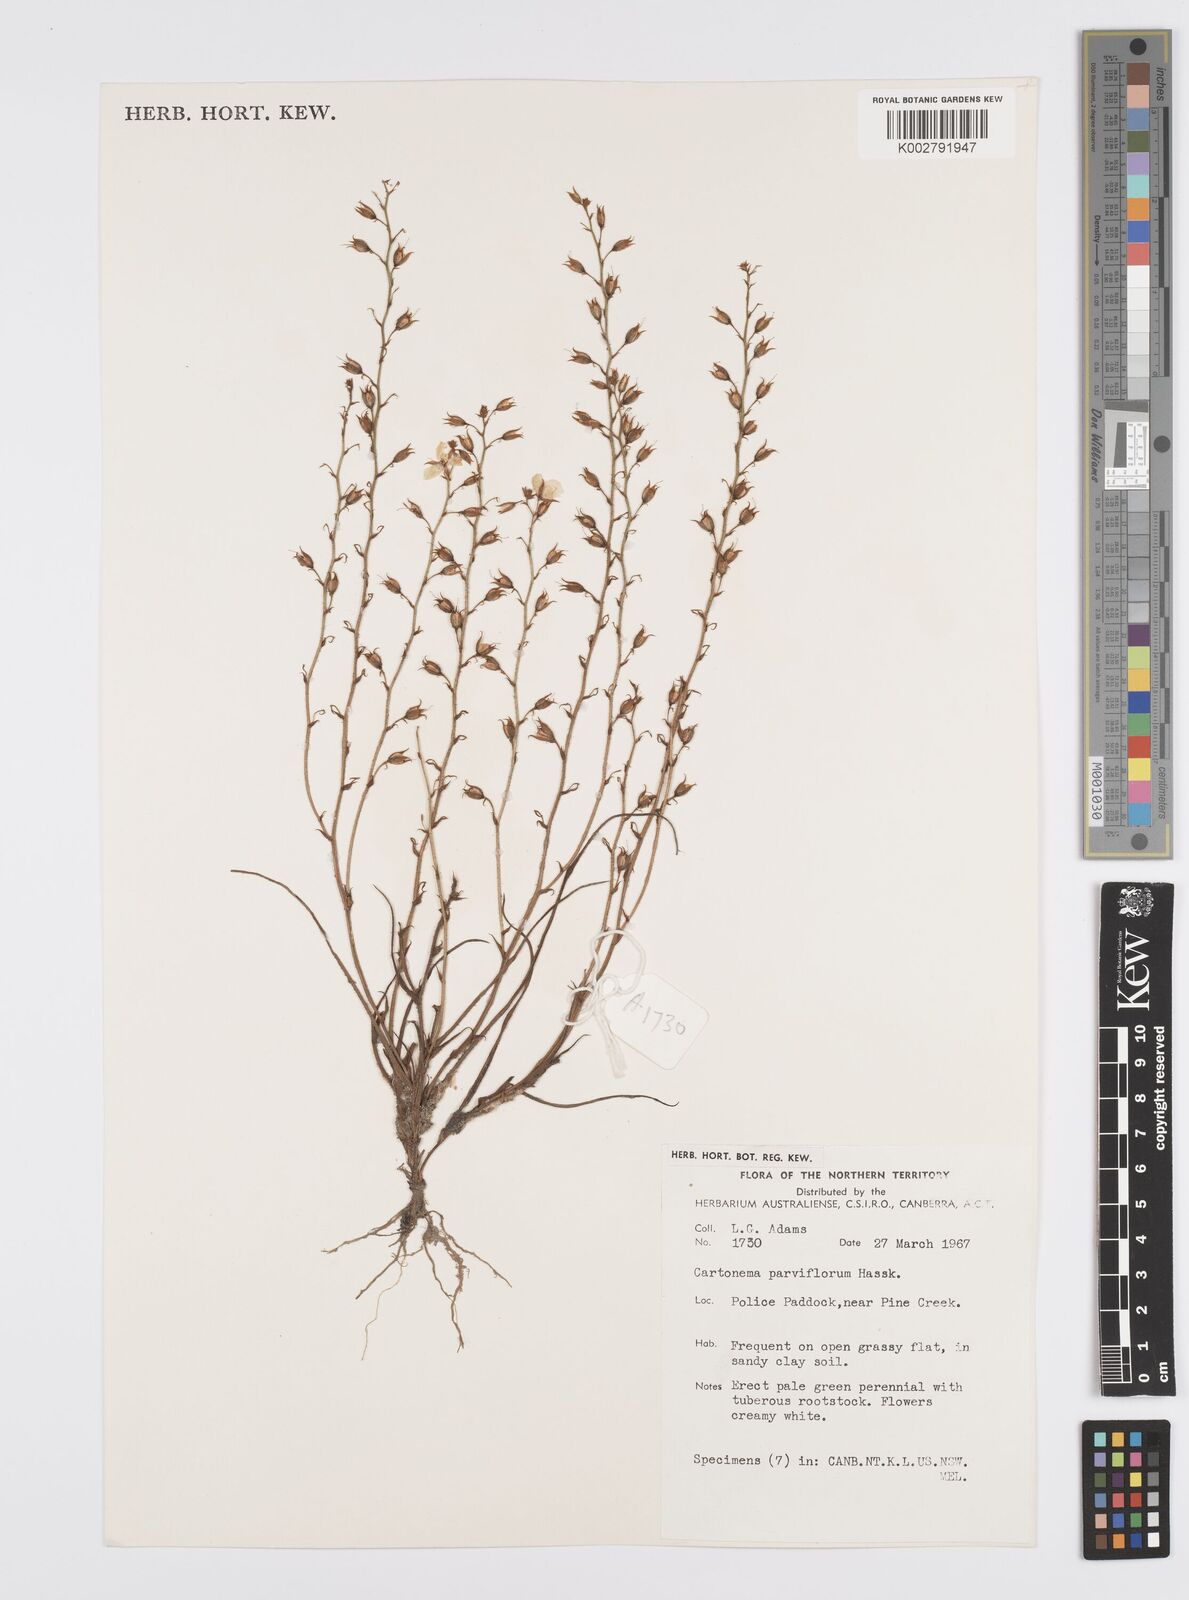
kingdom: Plantae
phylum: Tracheophyta
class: Liliopsida
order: Commelinales
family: Commelinaceae
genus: Cartonema
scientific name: Cartonema parviflorum
